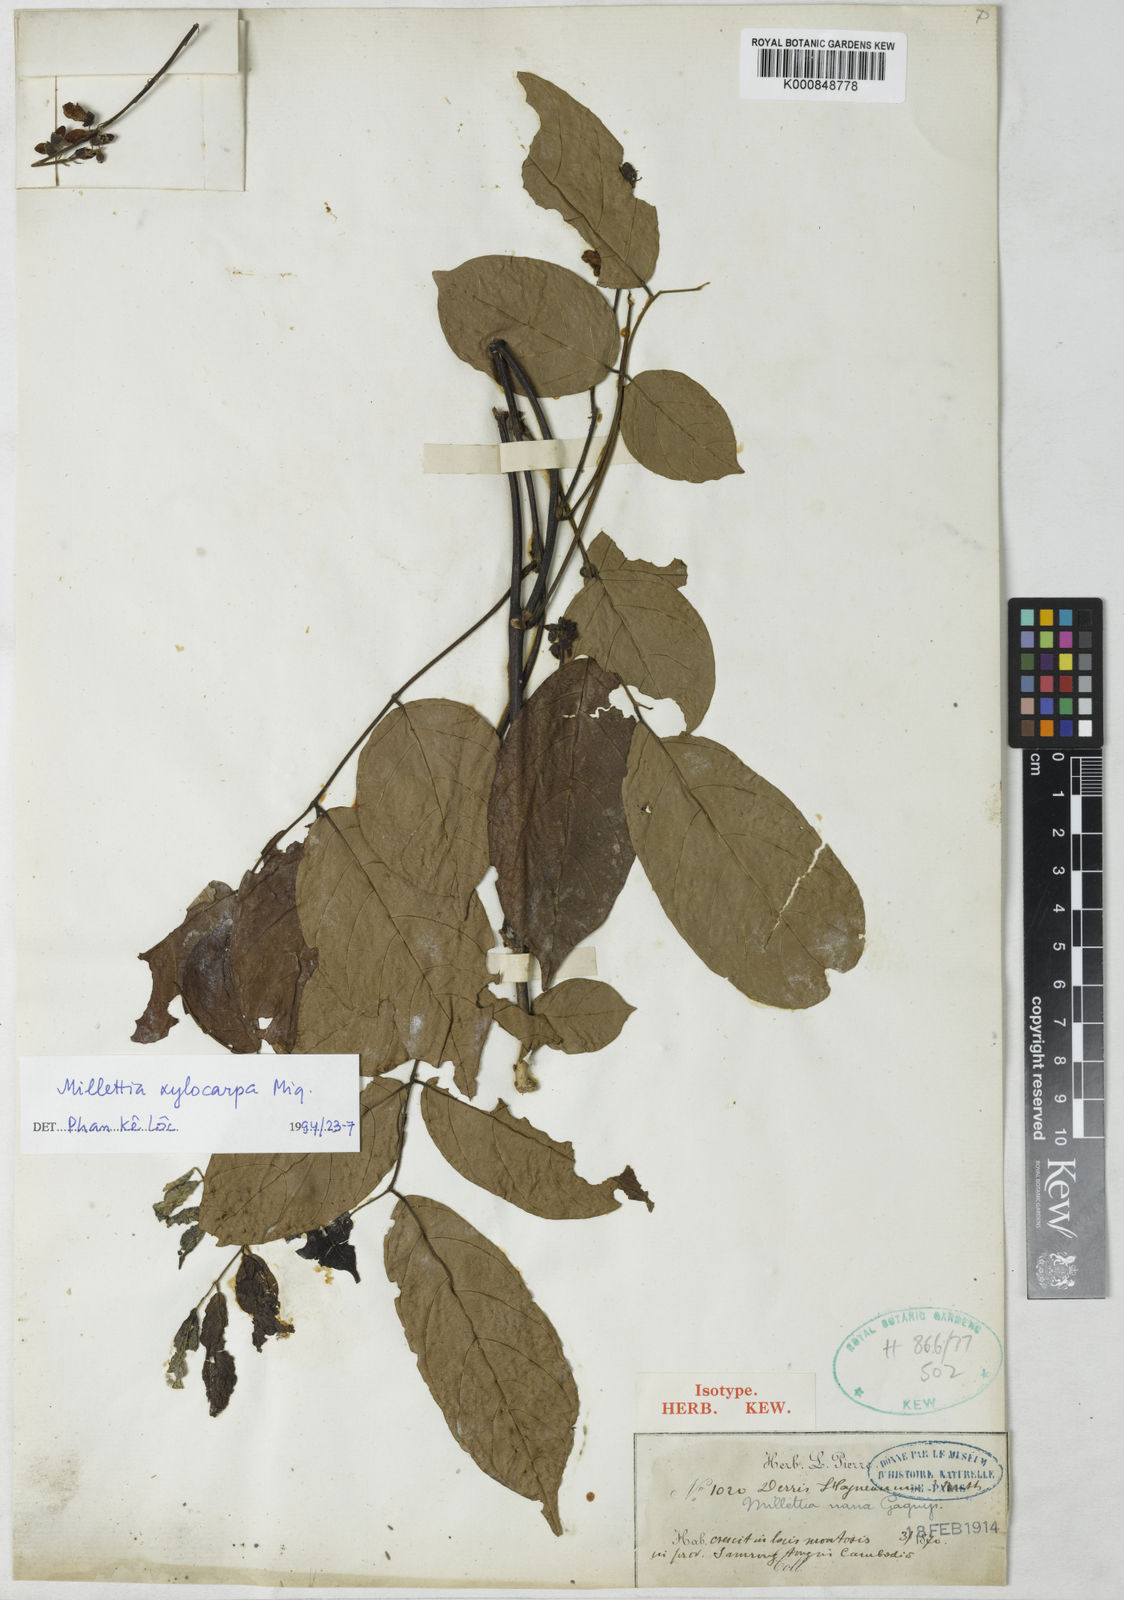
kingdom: Plantae
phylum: Tracheophyta
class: Magnoliopsida
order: Fabales
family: Fabaceae
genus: Millettia
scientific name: Millettia xylocarpa
